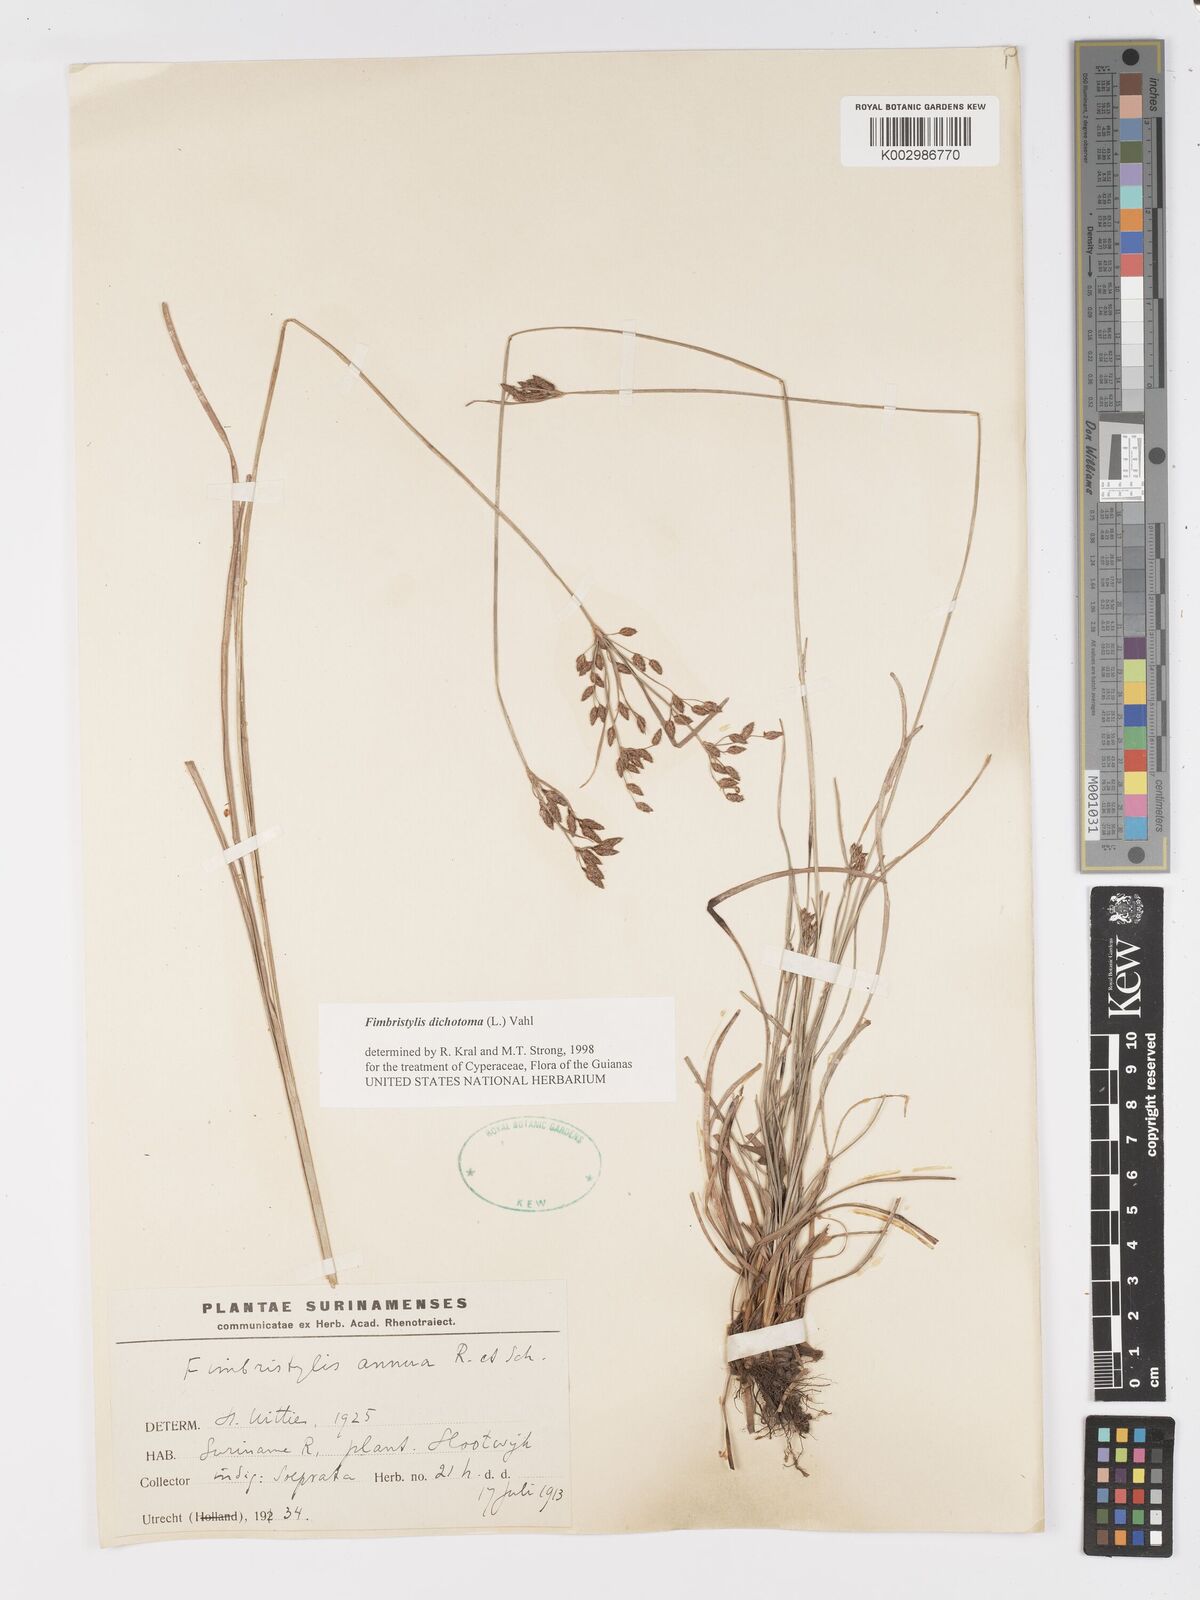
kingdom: Plantae
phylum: Tracheophyta
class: Liliopsida
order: Poales
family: Cyperaceae
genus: Fimbristylis
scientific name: Fimbristylis dichotoma
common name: Forked fimbry
